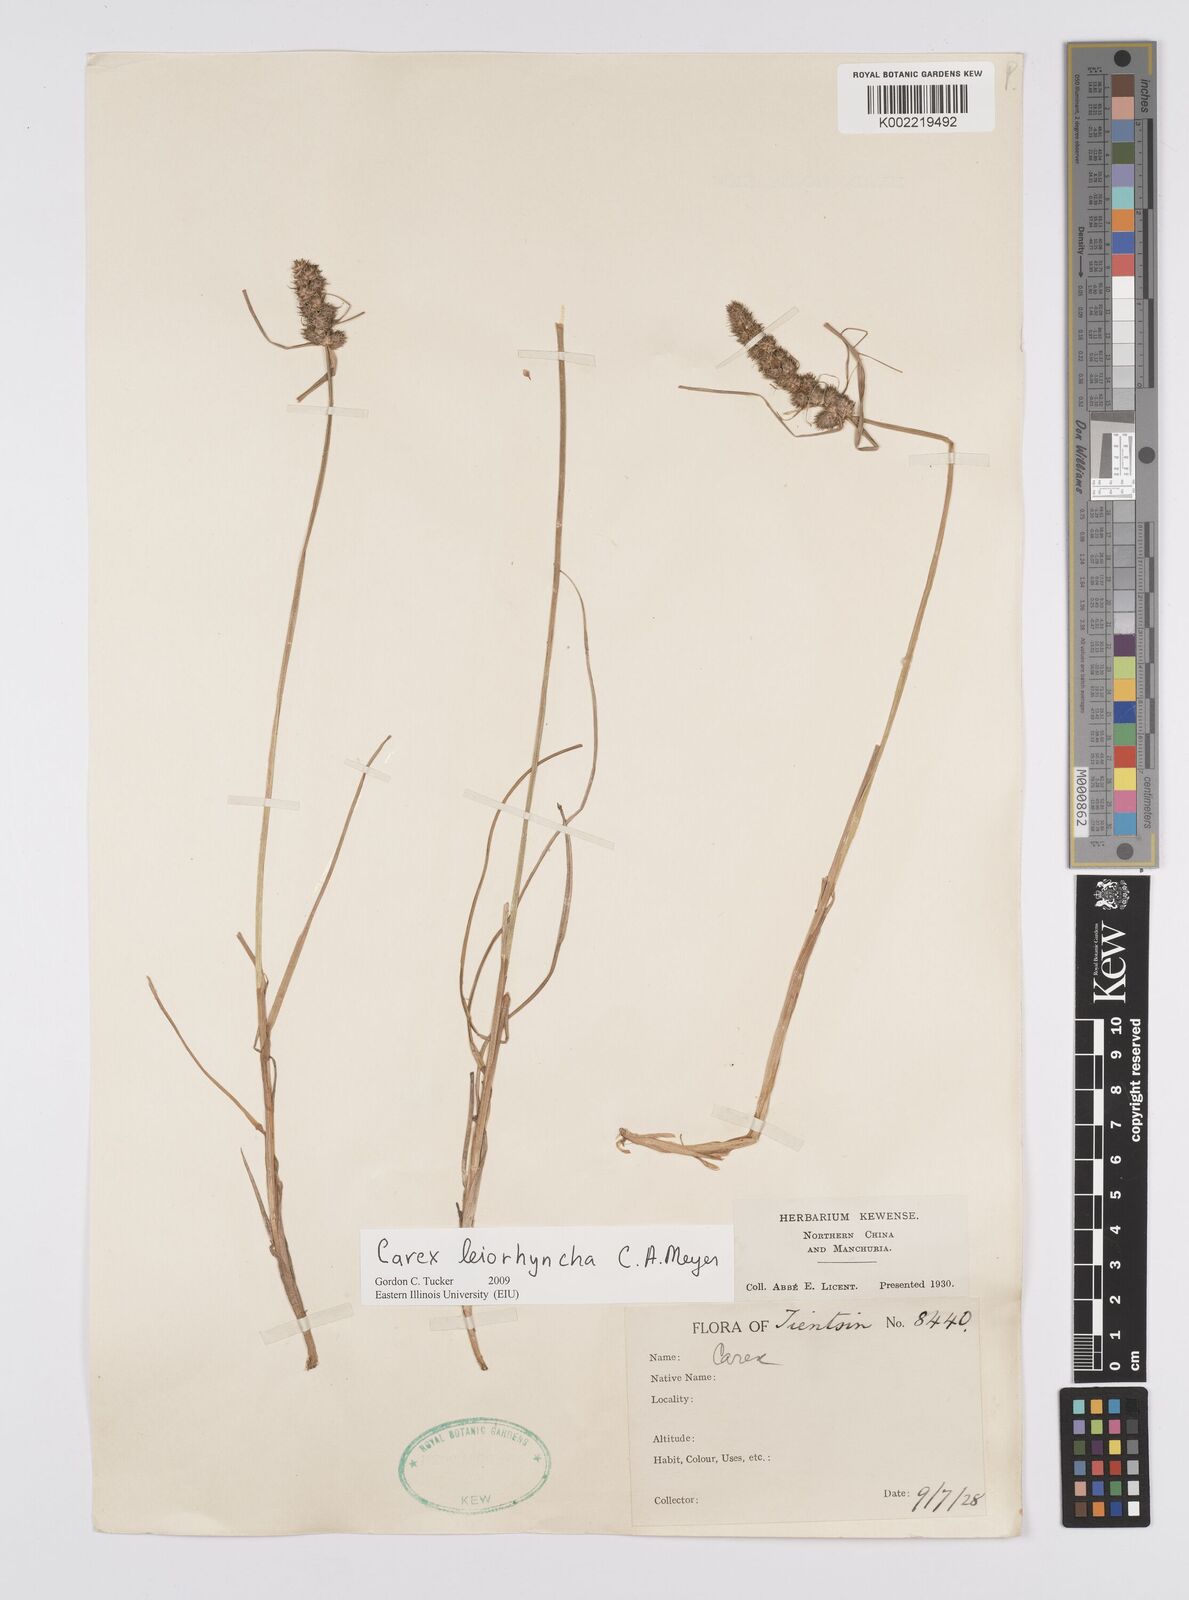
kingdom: Plantae
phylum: Tracheophyta
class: Liliopsida
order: Poales
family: Cyperaceae
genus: Carex
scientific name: Carex leiorhyncha
